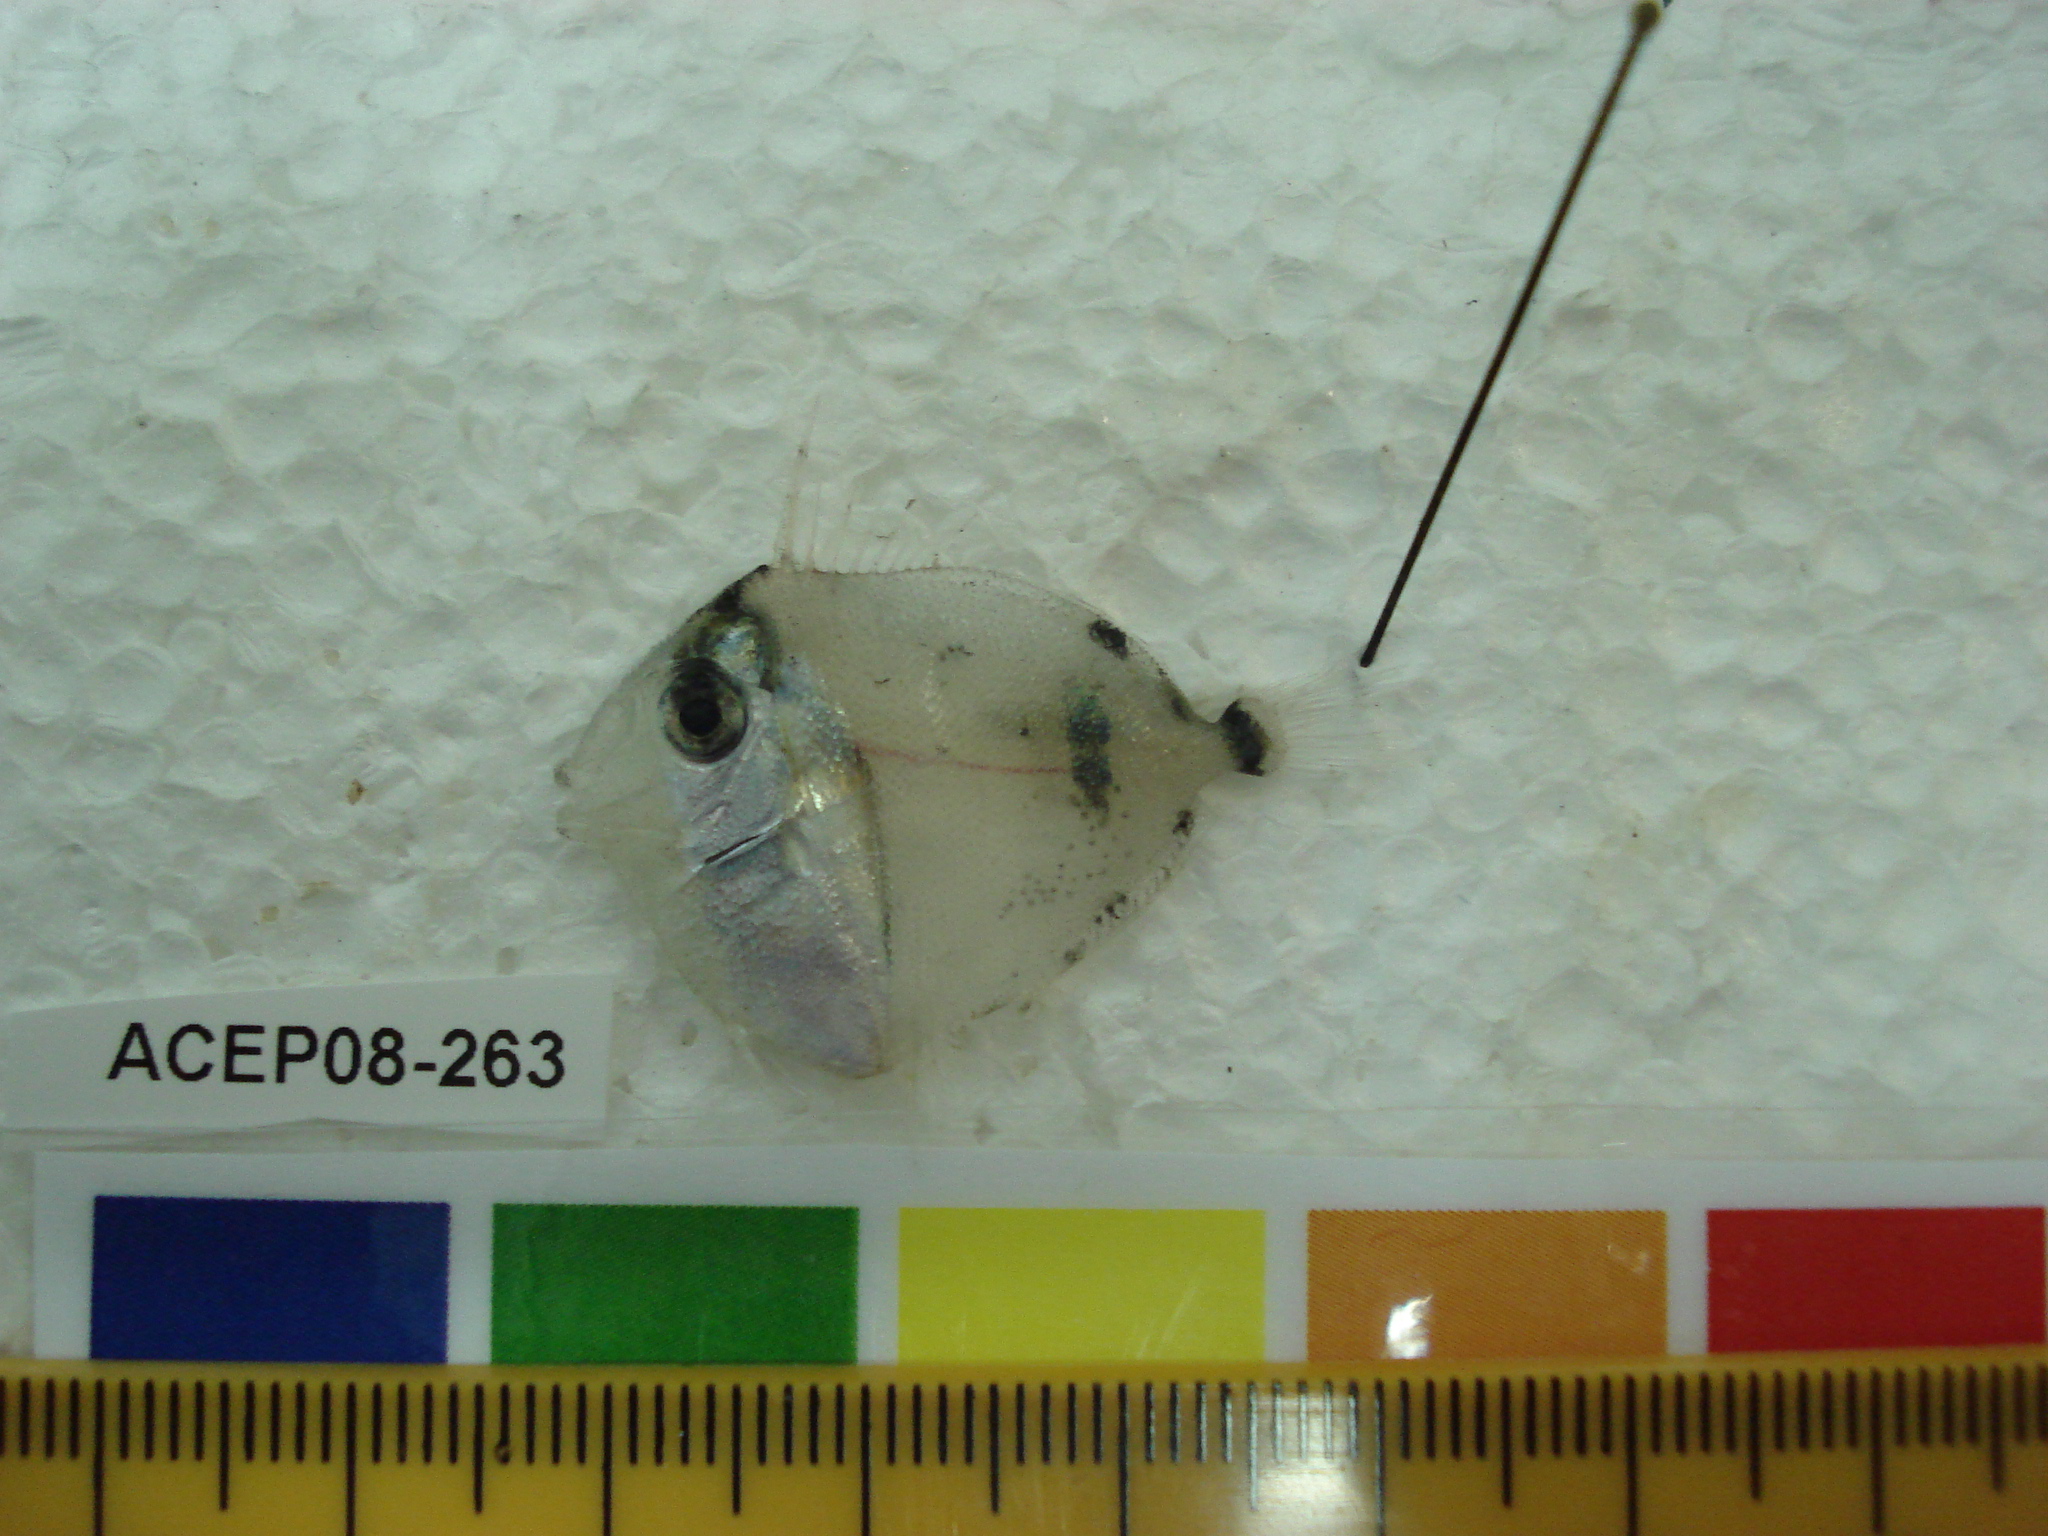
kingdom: Animalia
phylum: Chordata
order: Perciformes
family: Acanthuridae
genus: Naso
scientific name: Naso
